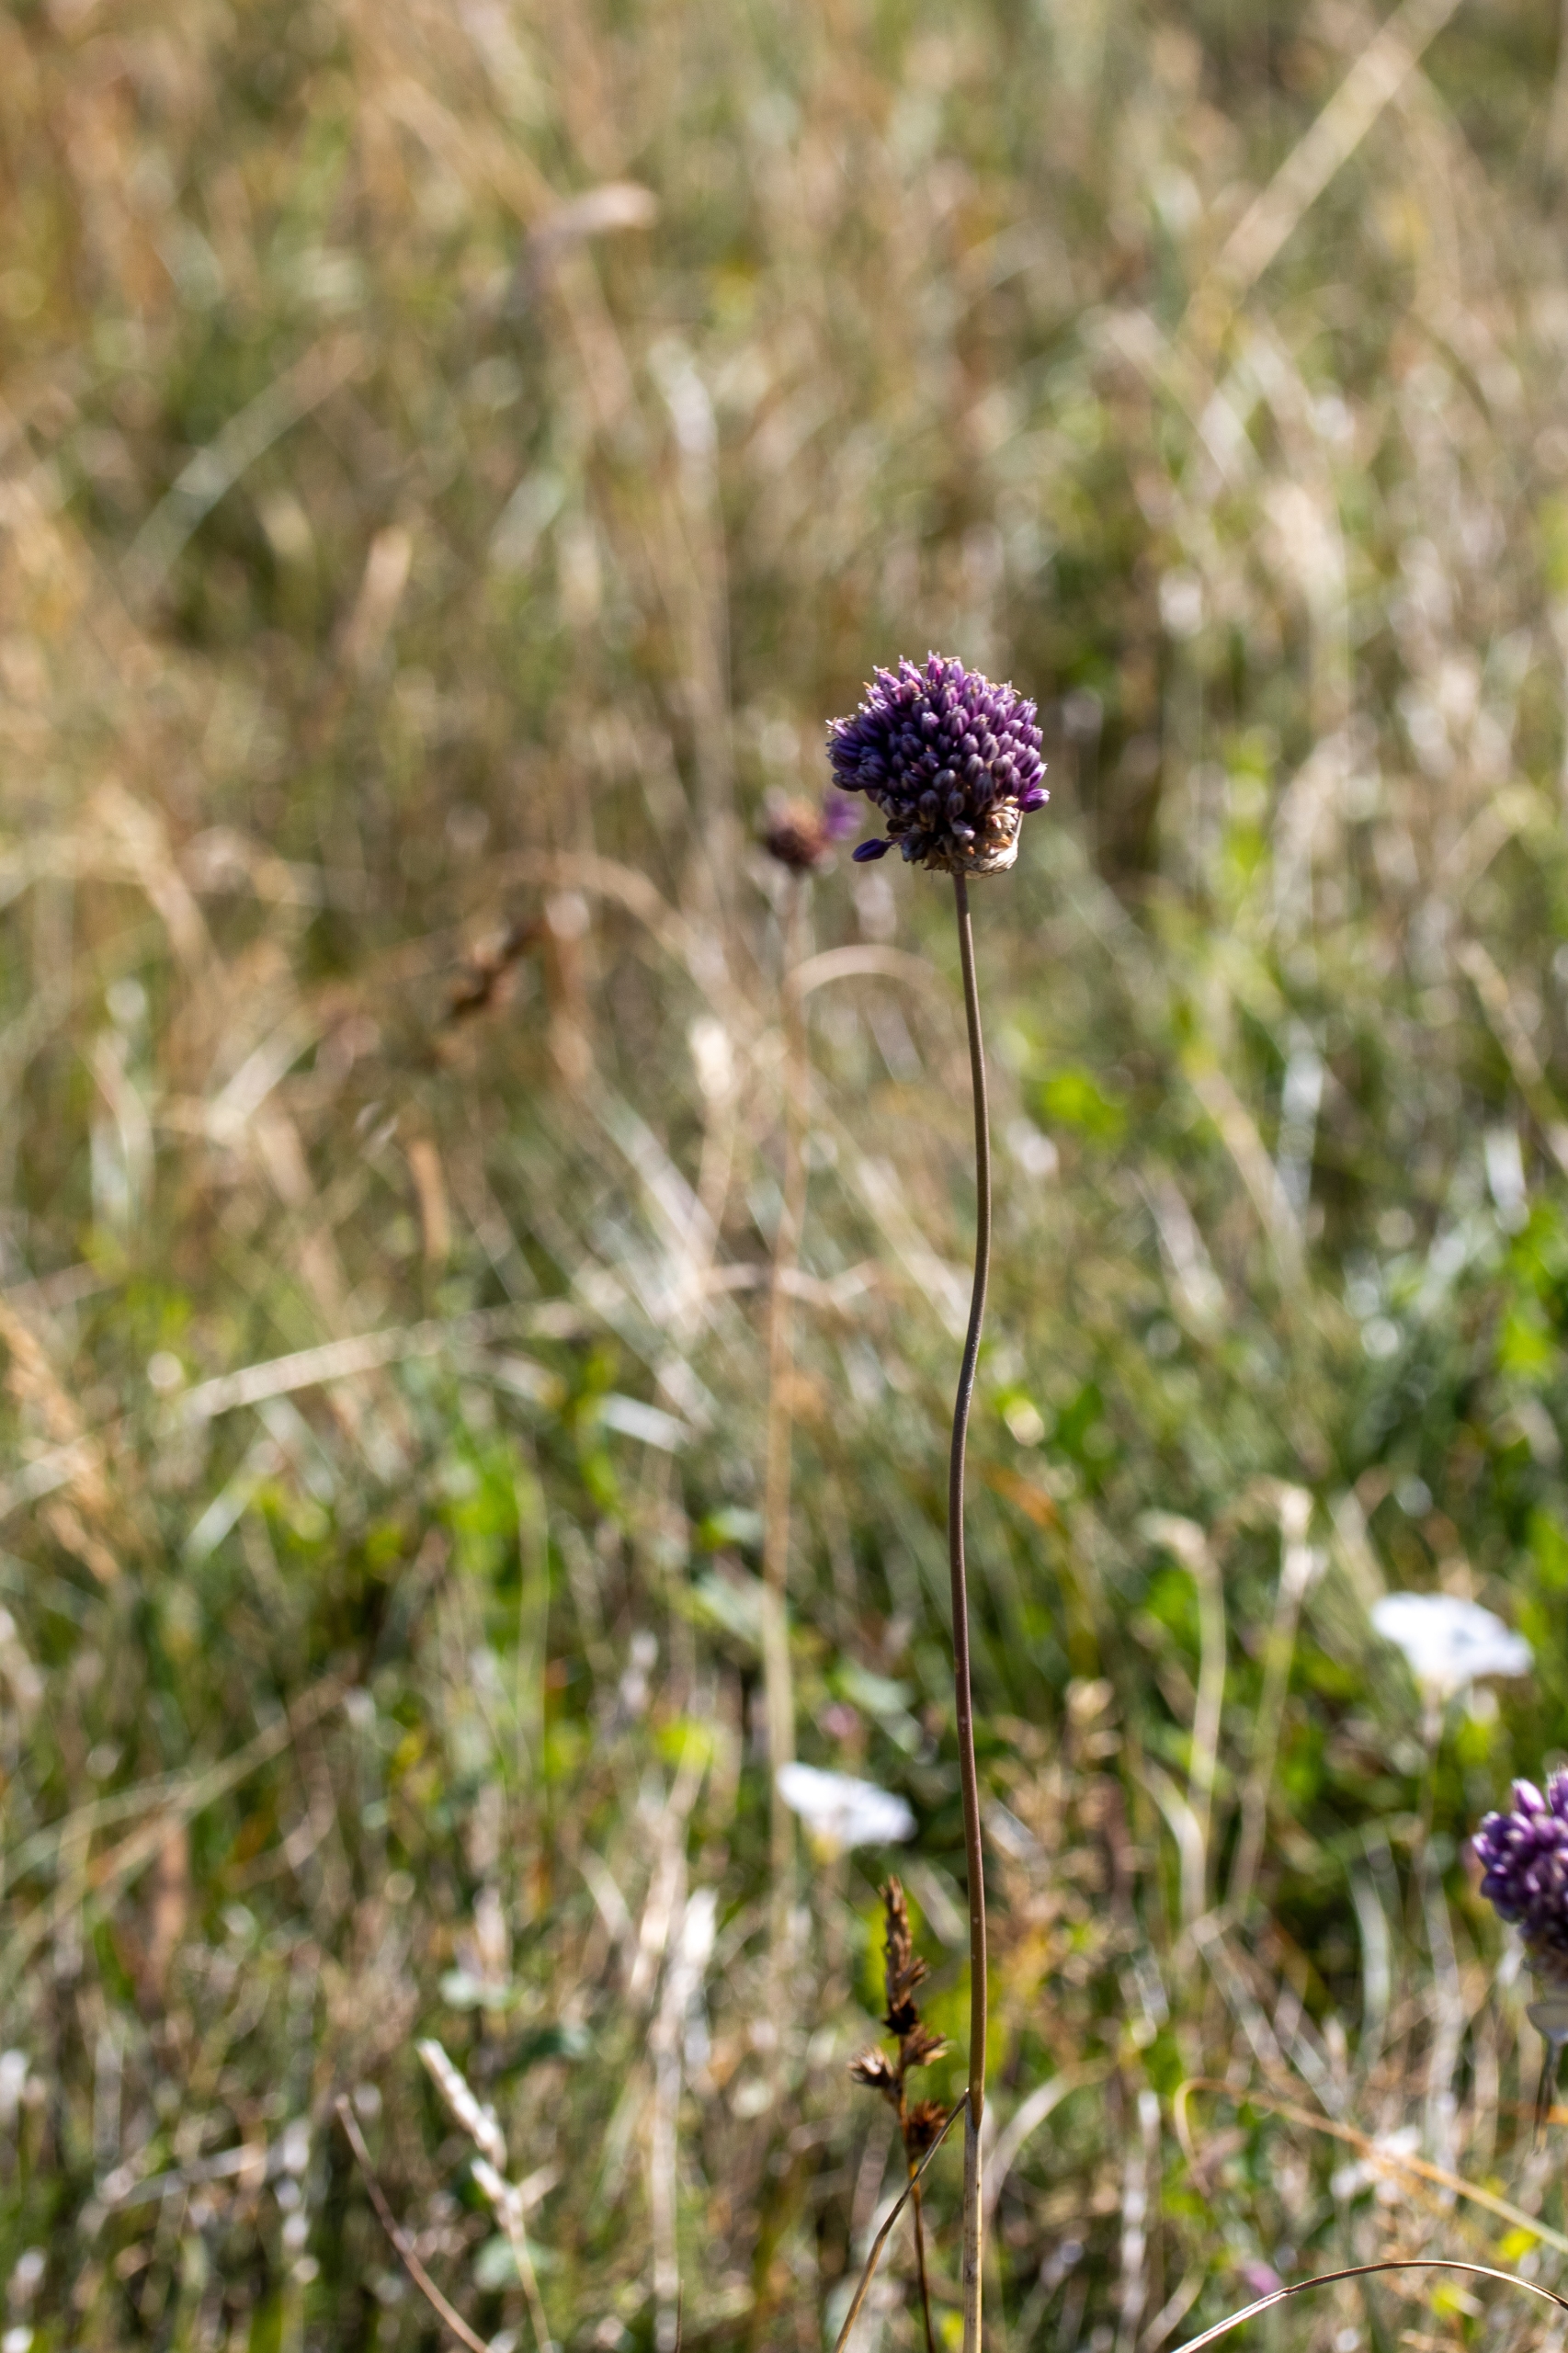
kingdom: Plantae
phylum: Tracheophyta
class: Liliopsida
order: Asparagales
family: Amaryllidaceae
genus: Allium
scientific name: Allium vineale
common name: Sand-løg
